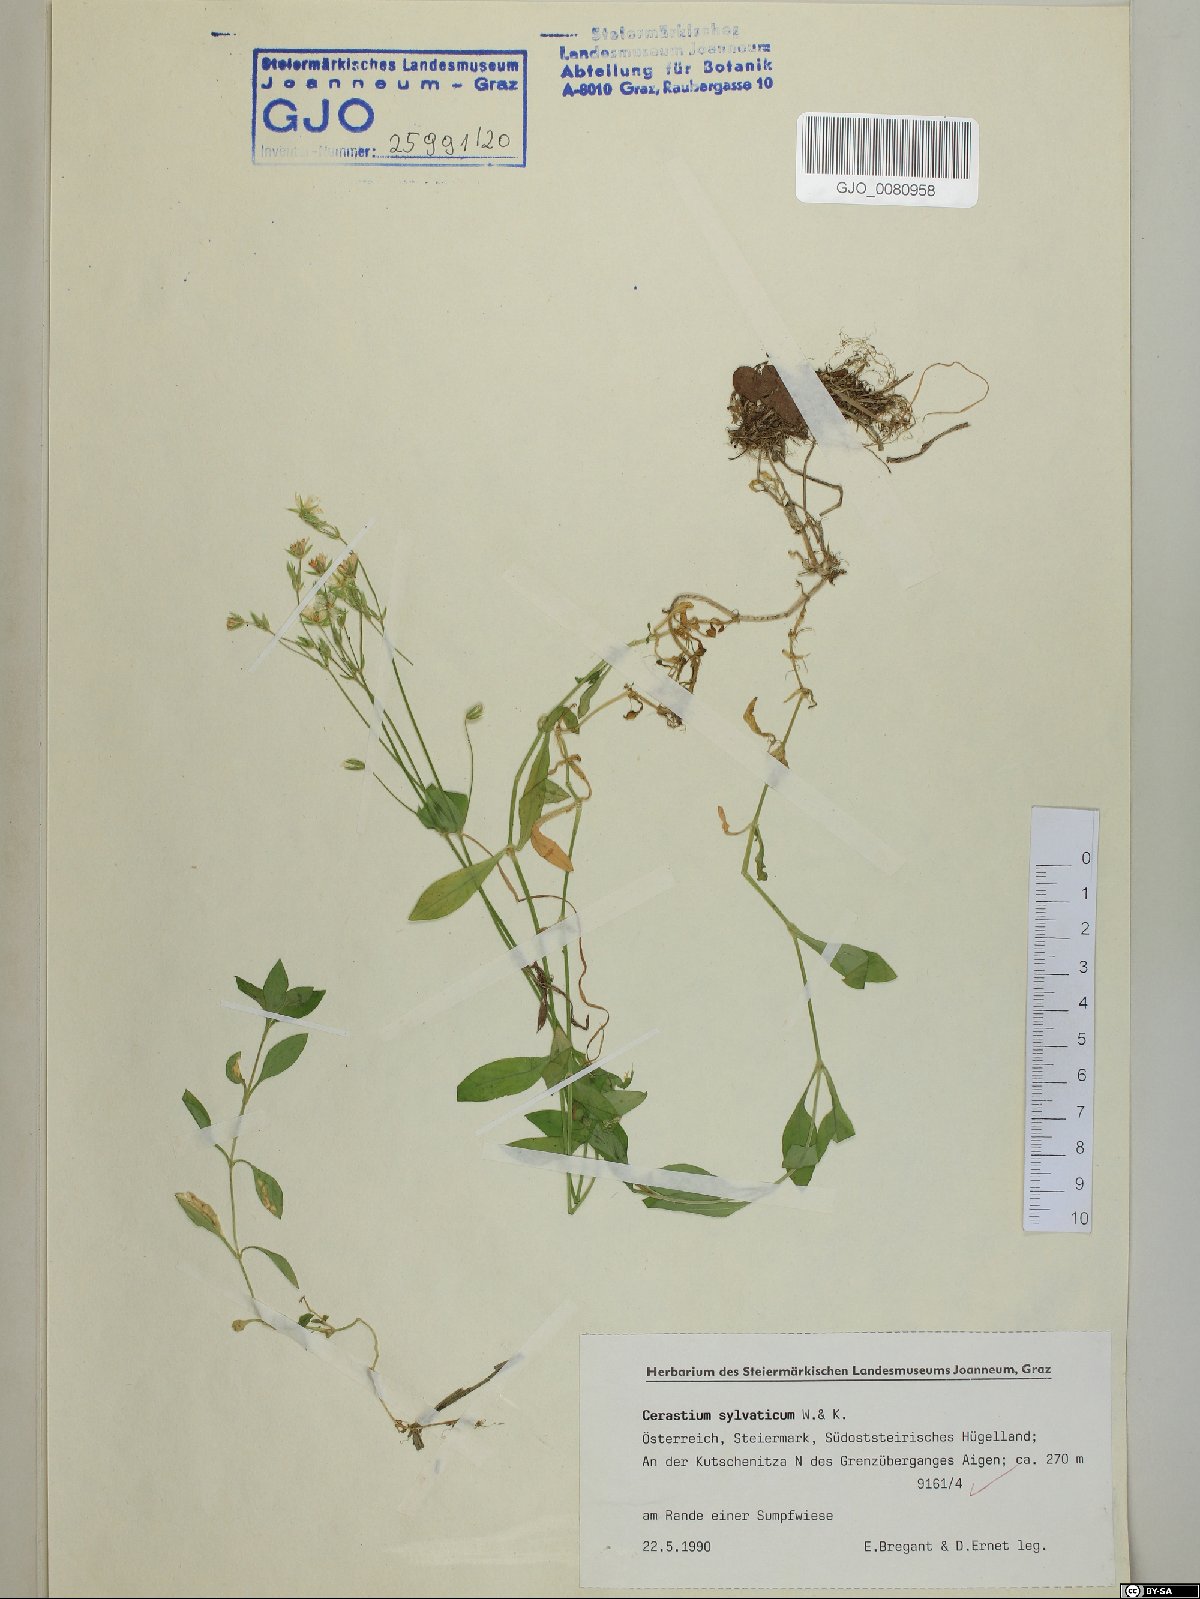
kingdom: Plantae
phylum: Tracheophyta
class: Magnoliopsida
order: Caryophyllales
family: Caryophyllaceae
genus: Cerastium
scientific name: Cerastium sylvaticum
